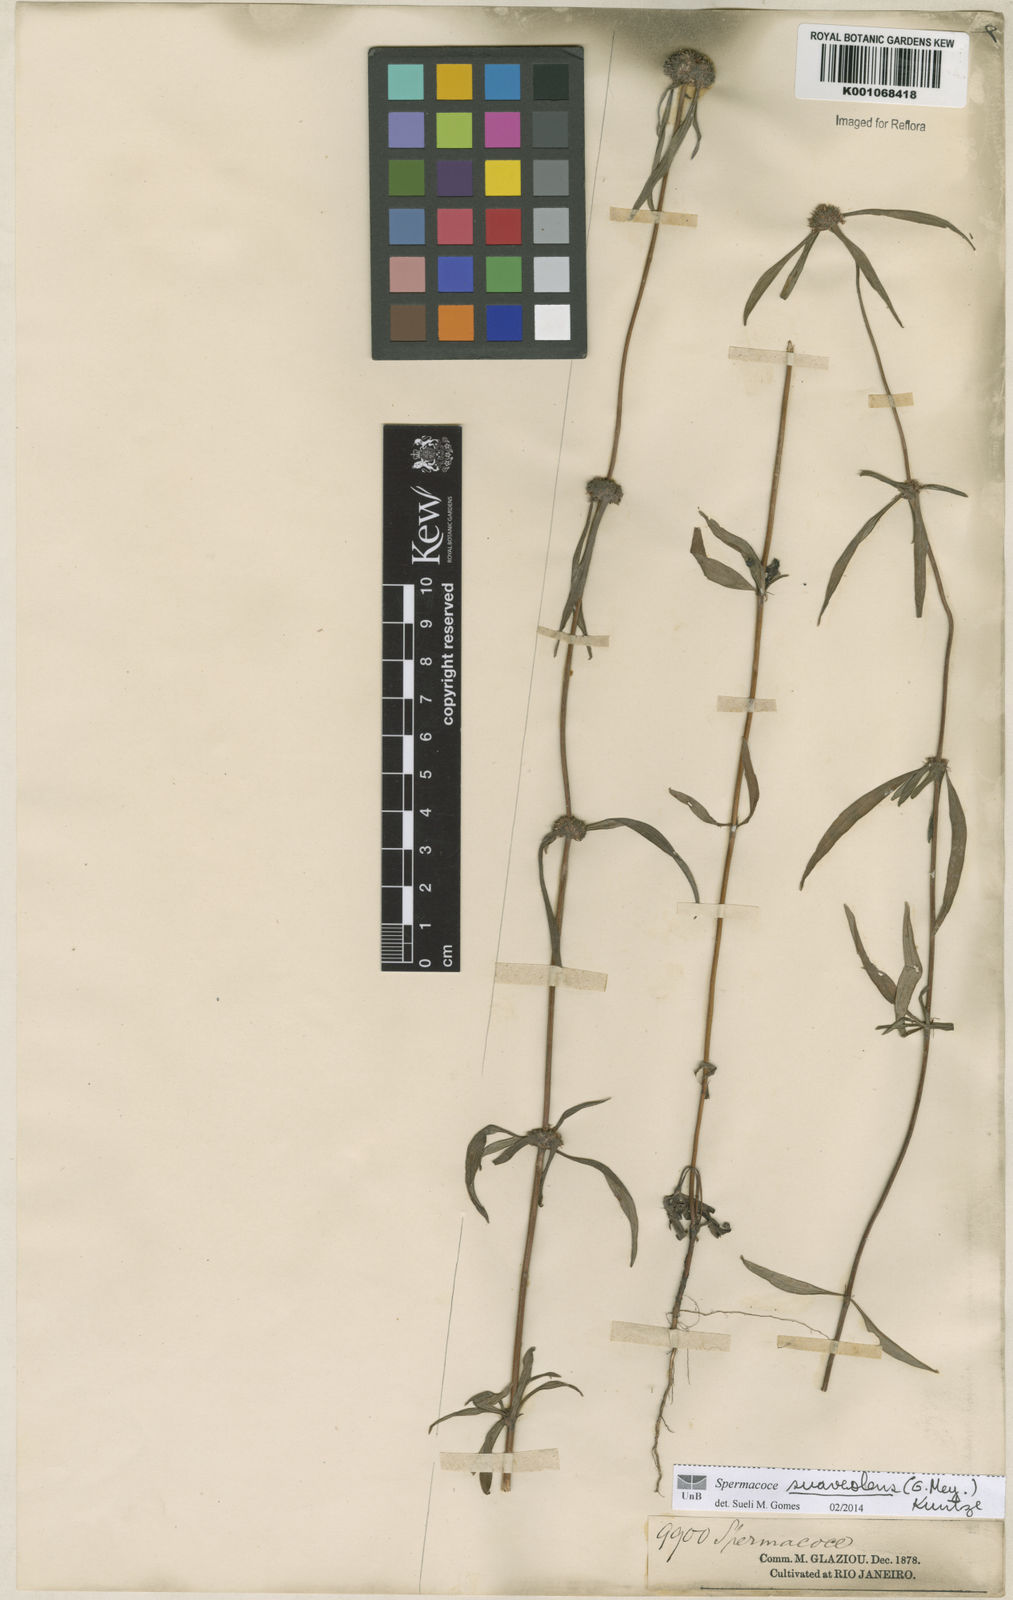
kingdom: Plantae
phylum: Tracheophyta
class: Magnoliopsida
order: Gentianales
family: Rubiaceae
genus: Spermacoce
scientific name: Spermacoce suaveolens
